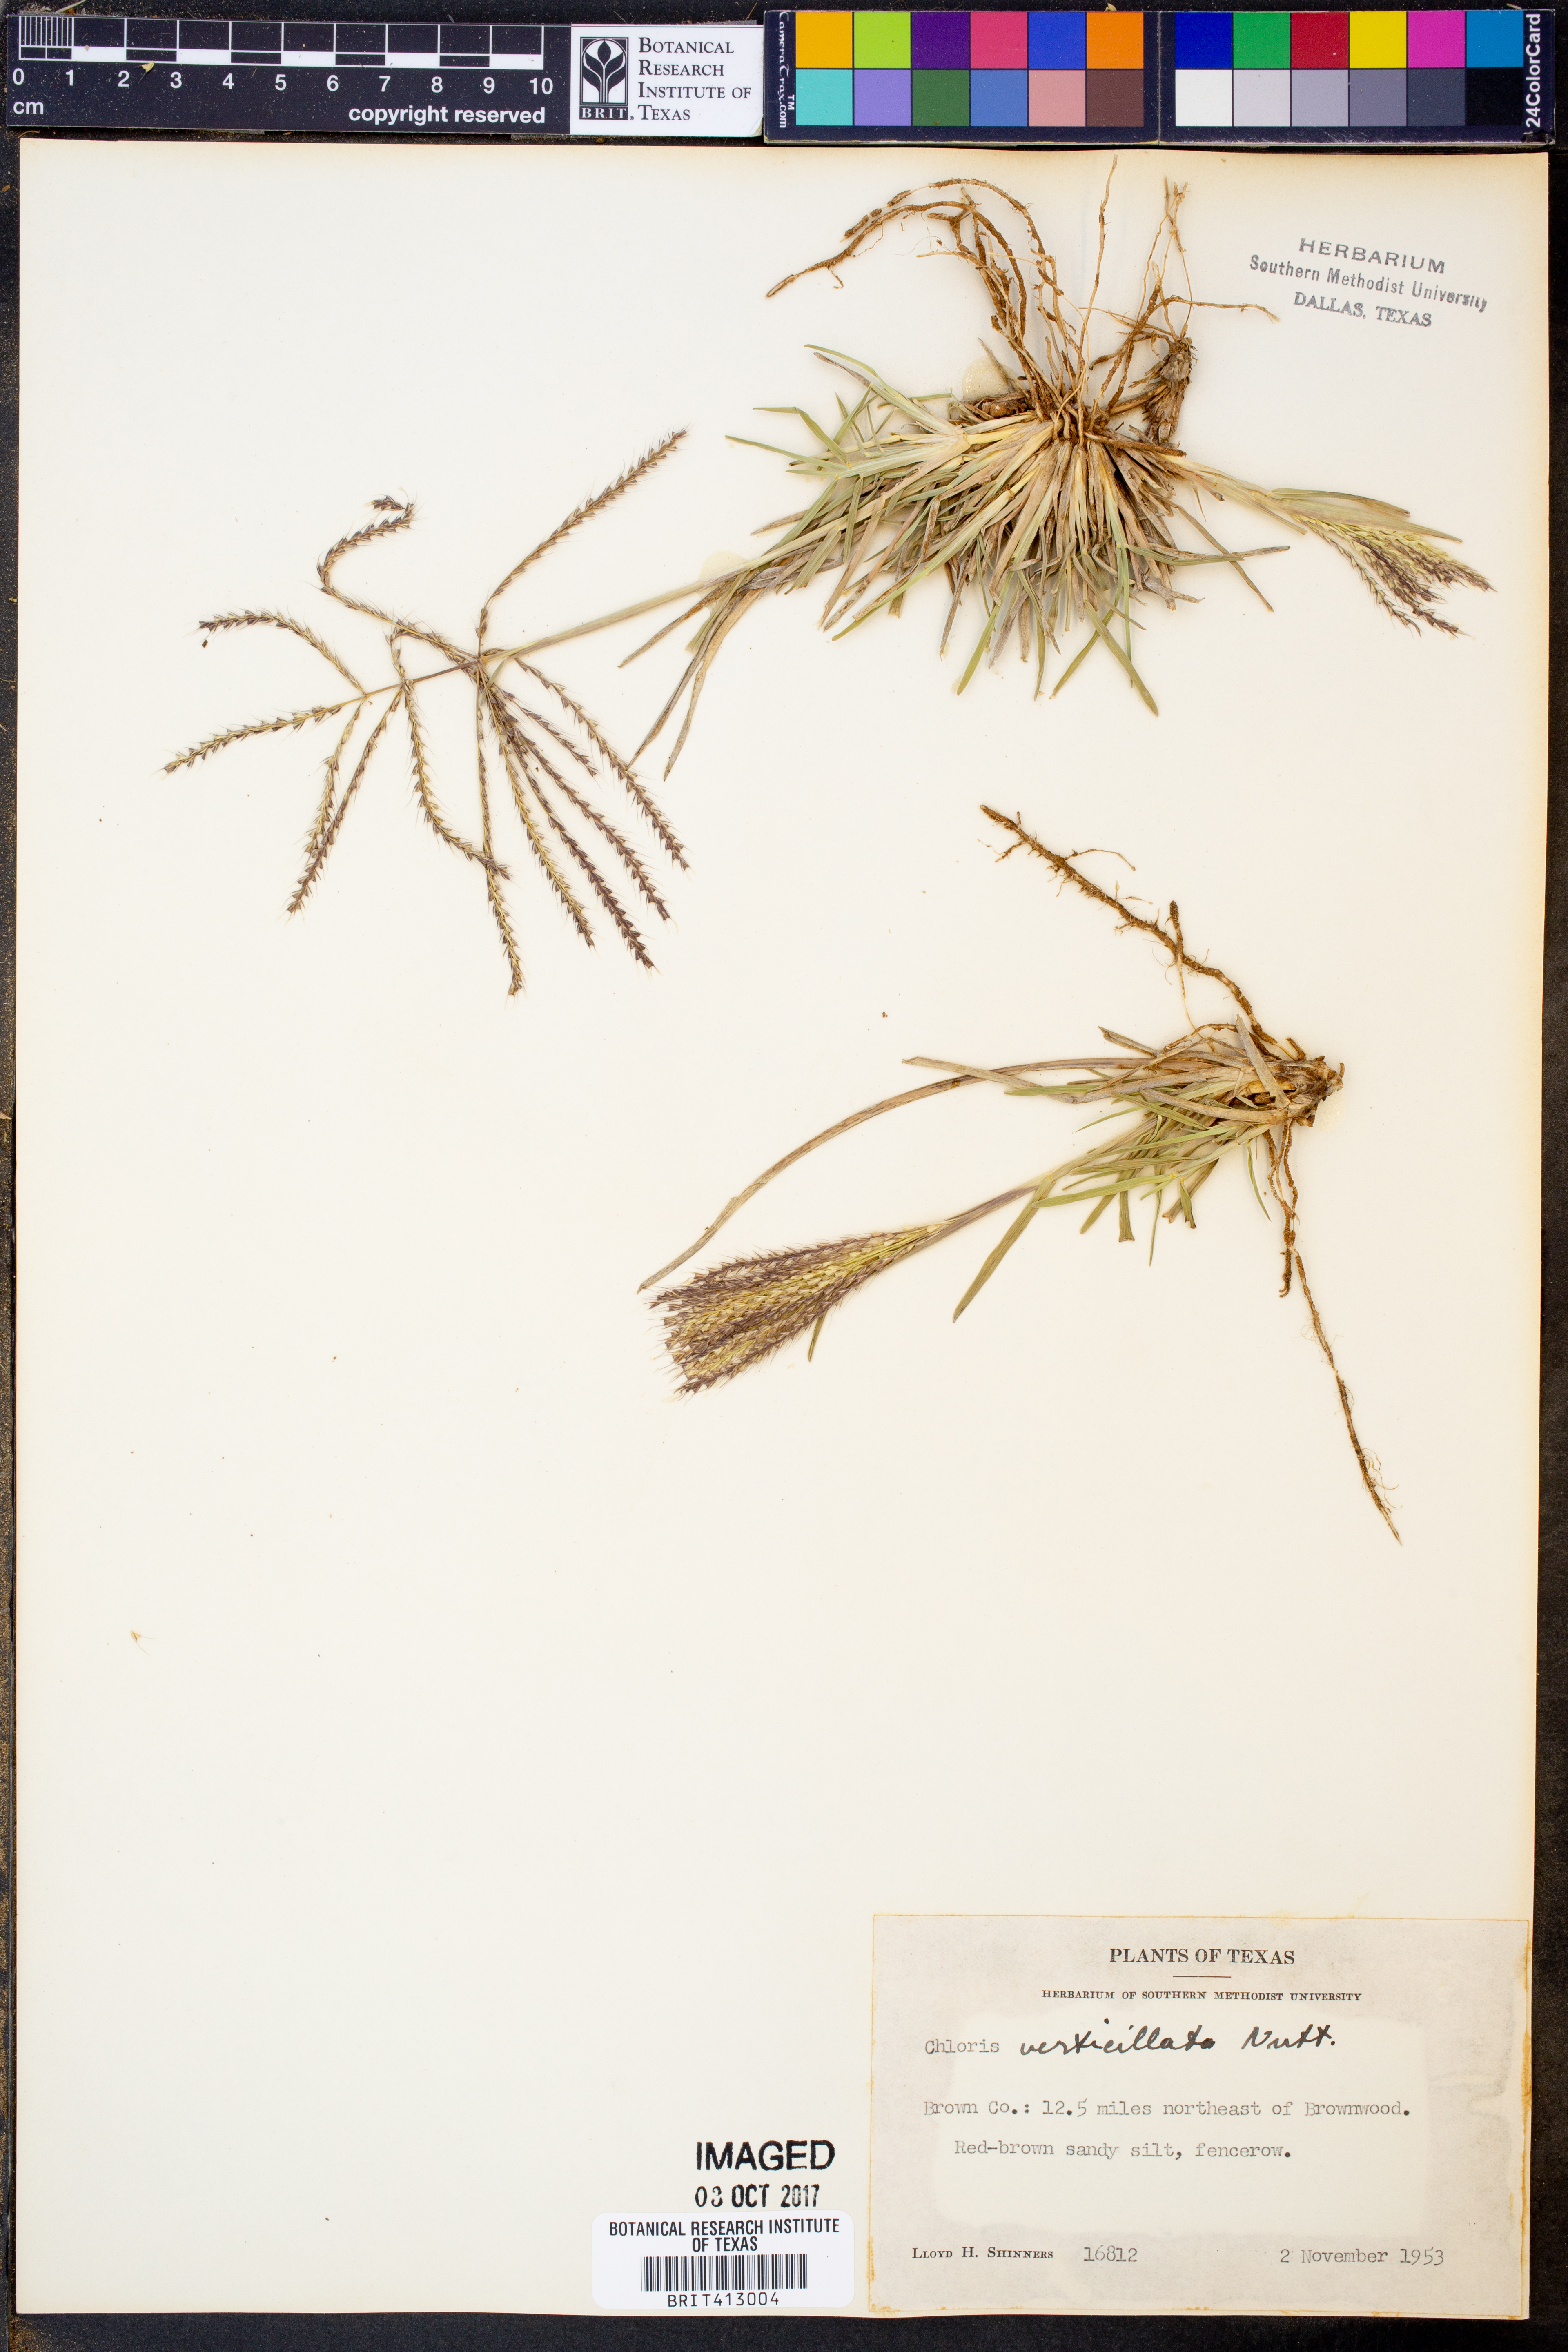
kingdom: Plantae
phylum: Tracheophyta
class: Liliopsida
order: Poales
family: Poaceae
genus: Chloris
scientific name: Chloris verticillata
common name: Tumble windmill grass
